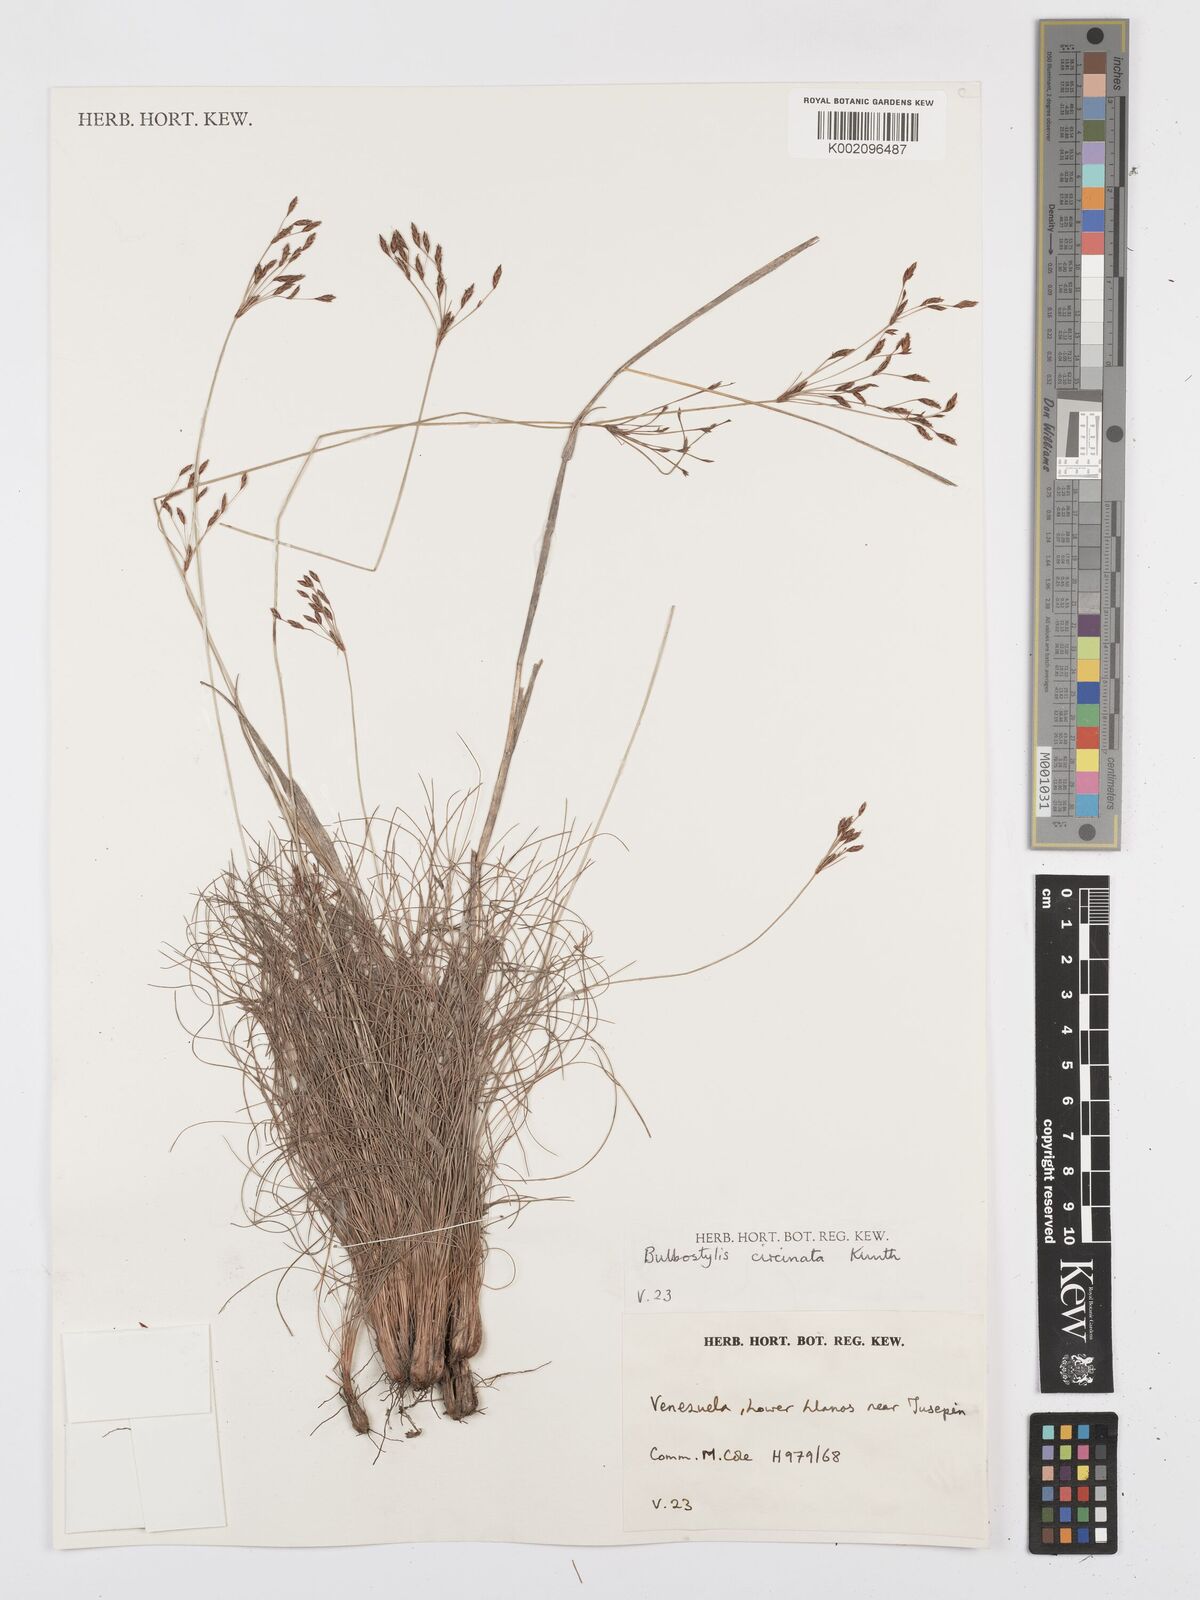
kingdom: Plantae
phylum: Tracheophyta
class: Liliopsida
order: Poales
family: Cyperaceae
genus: Bulbostylis
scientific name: Bulbostylis circinata
